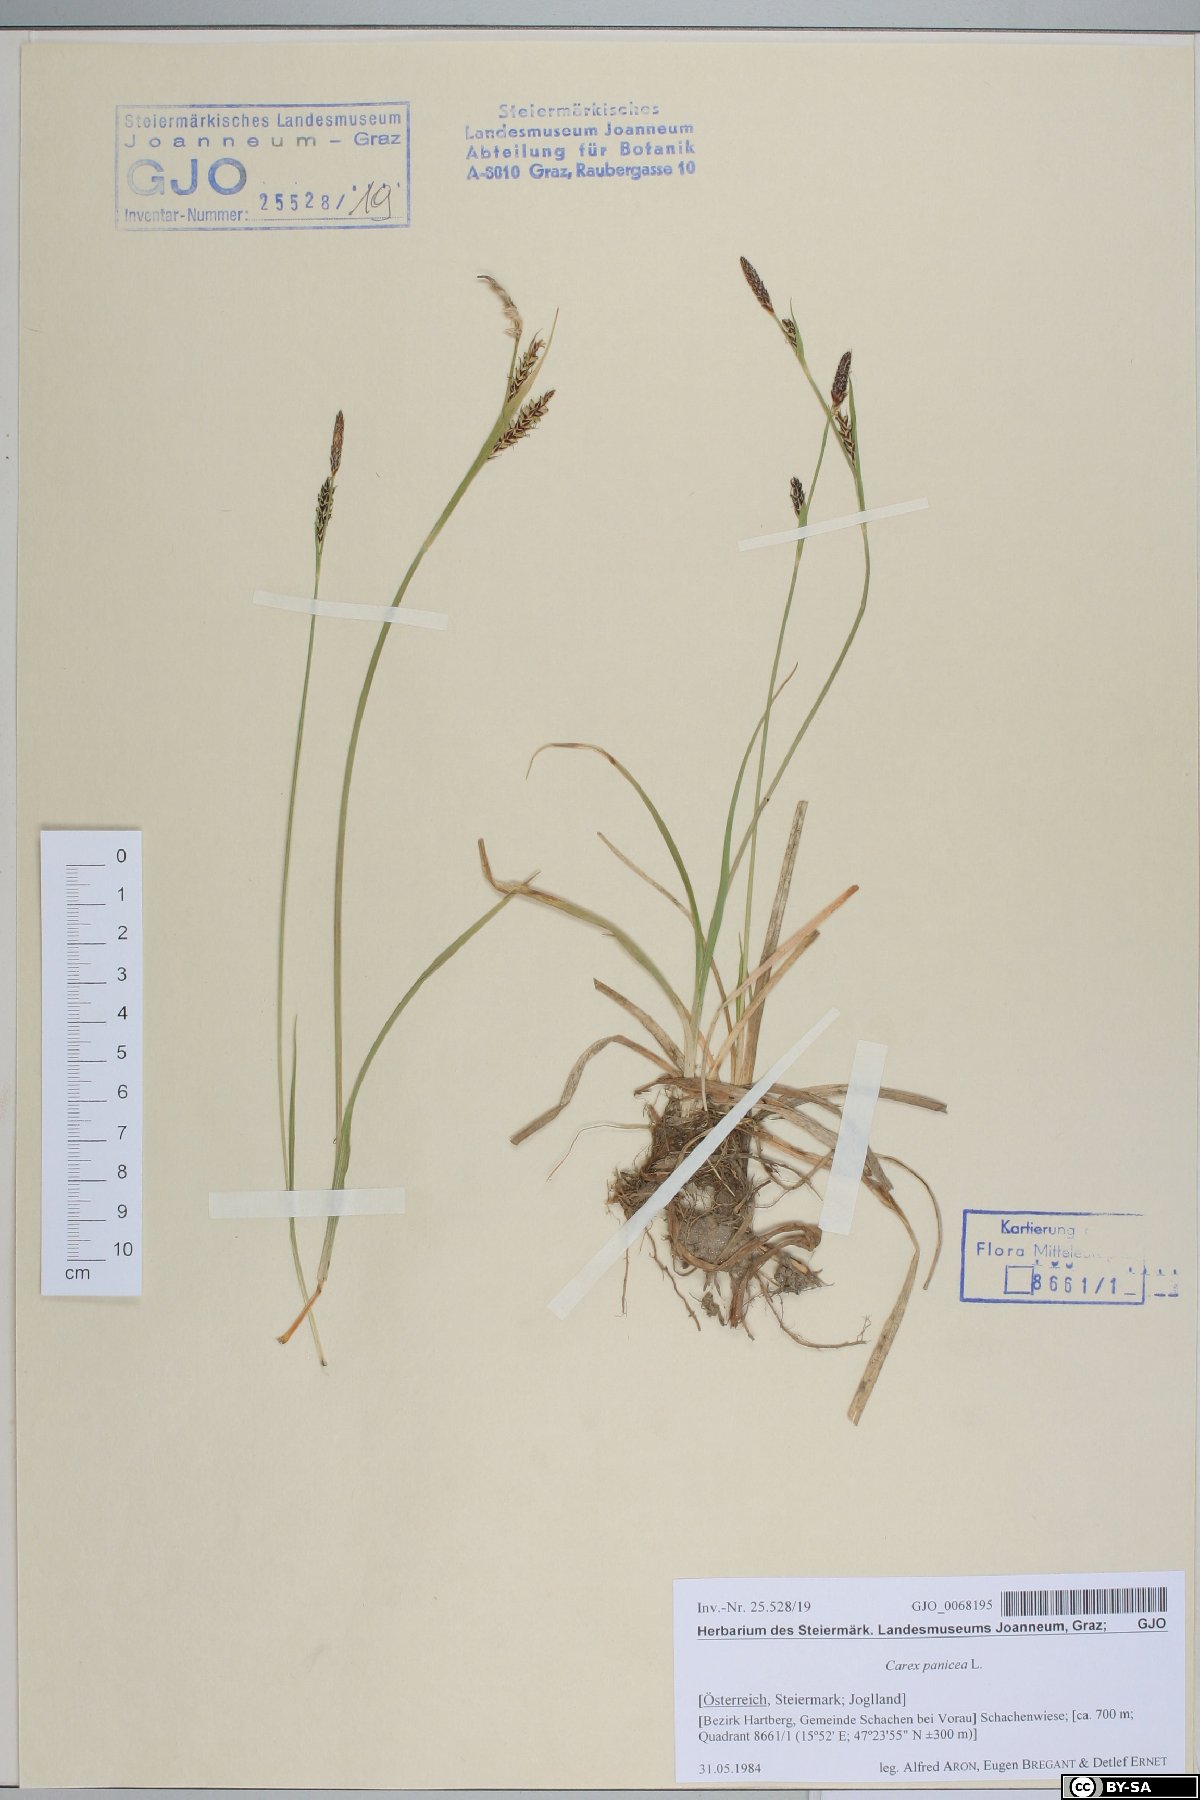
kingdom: Plantae
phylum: Tracheophyta
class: Liliopsida
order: Poales
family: Cyperaceae
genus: Carex
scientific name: Carex panicea
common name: Carnation sedge
